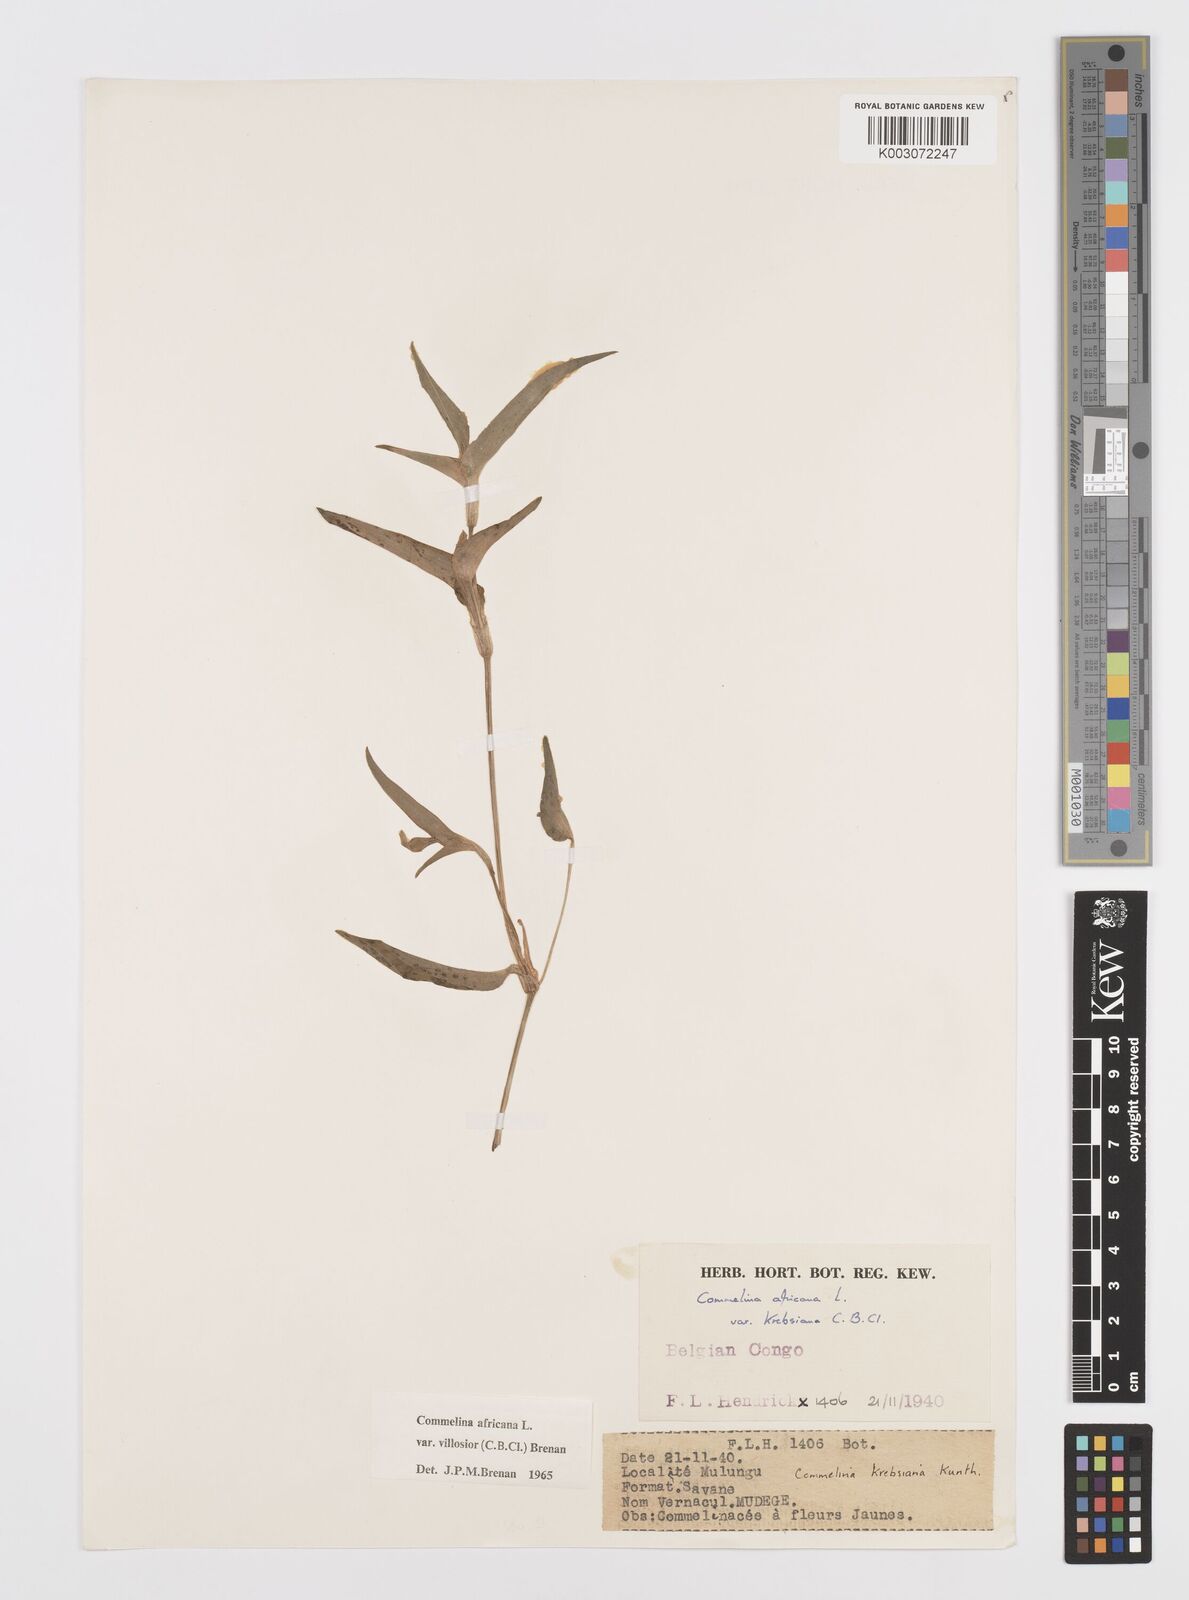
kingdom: Plantae
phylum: Tracheophyta
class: Liliopsida
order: Commelinales
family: Commelinaceae
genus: Commelina
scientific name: Commelina africana
